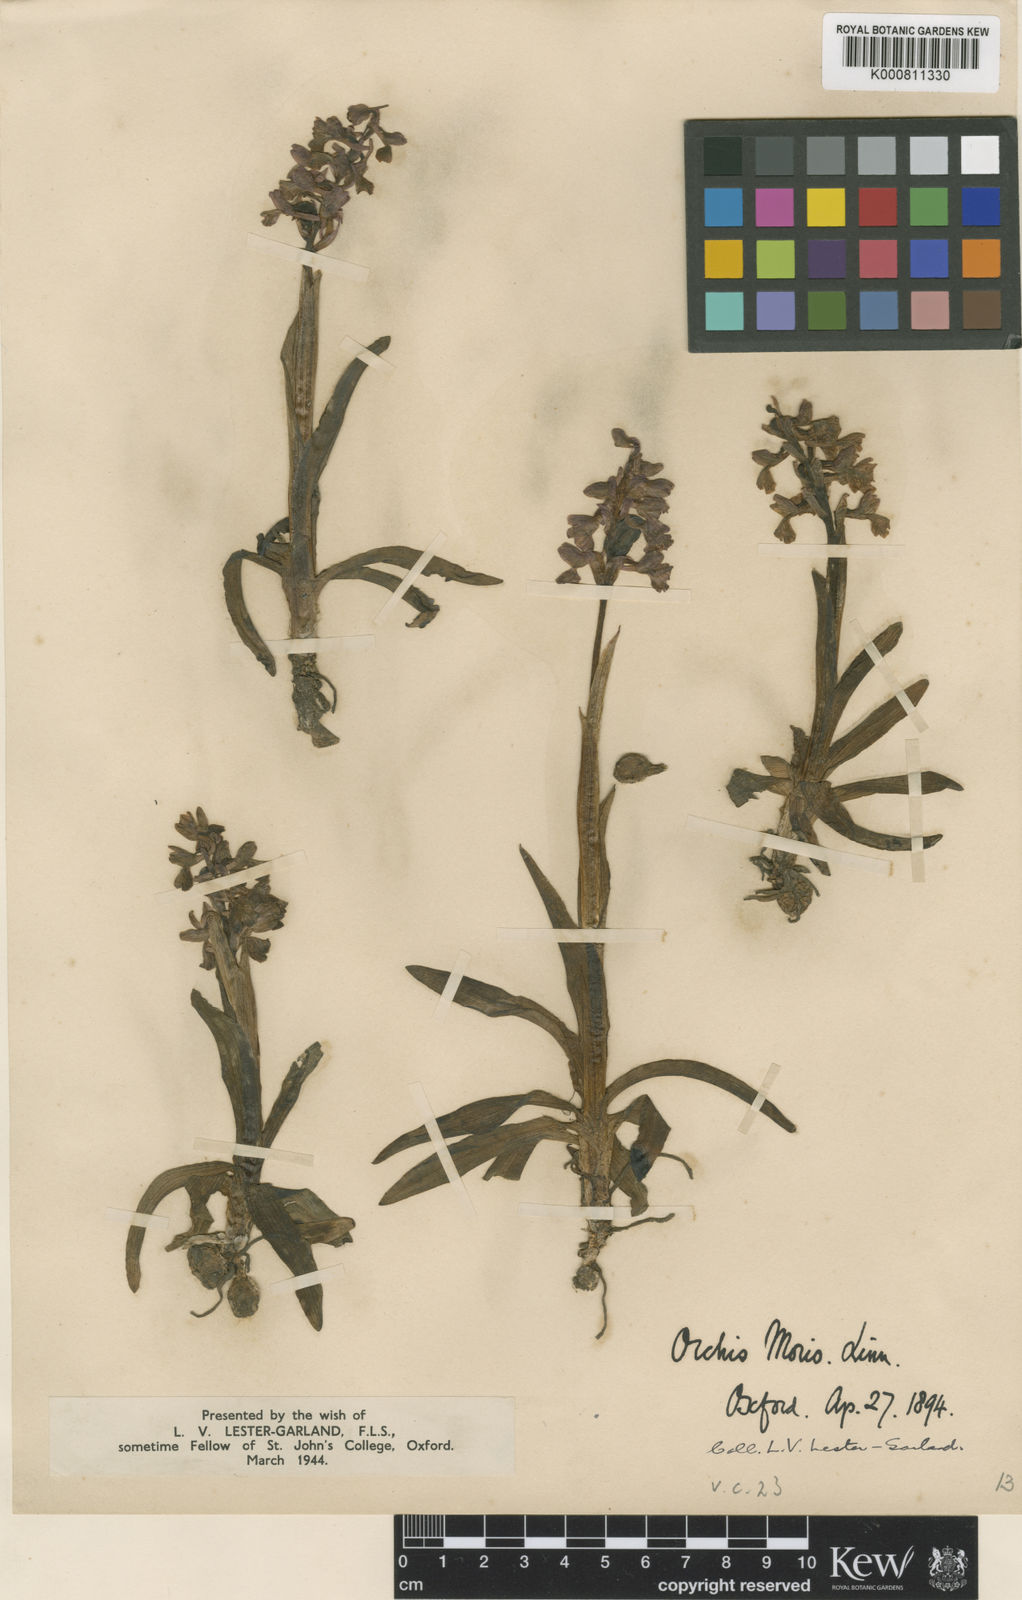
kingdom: Plantae
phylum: Tracheophyta
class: Liliopsida
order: Asparagales
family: Orchidaceae
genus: Anacamptis
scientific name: Anacamptis morio
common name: Green-winged orchid
